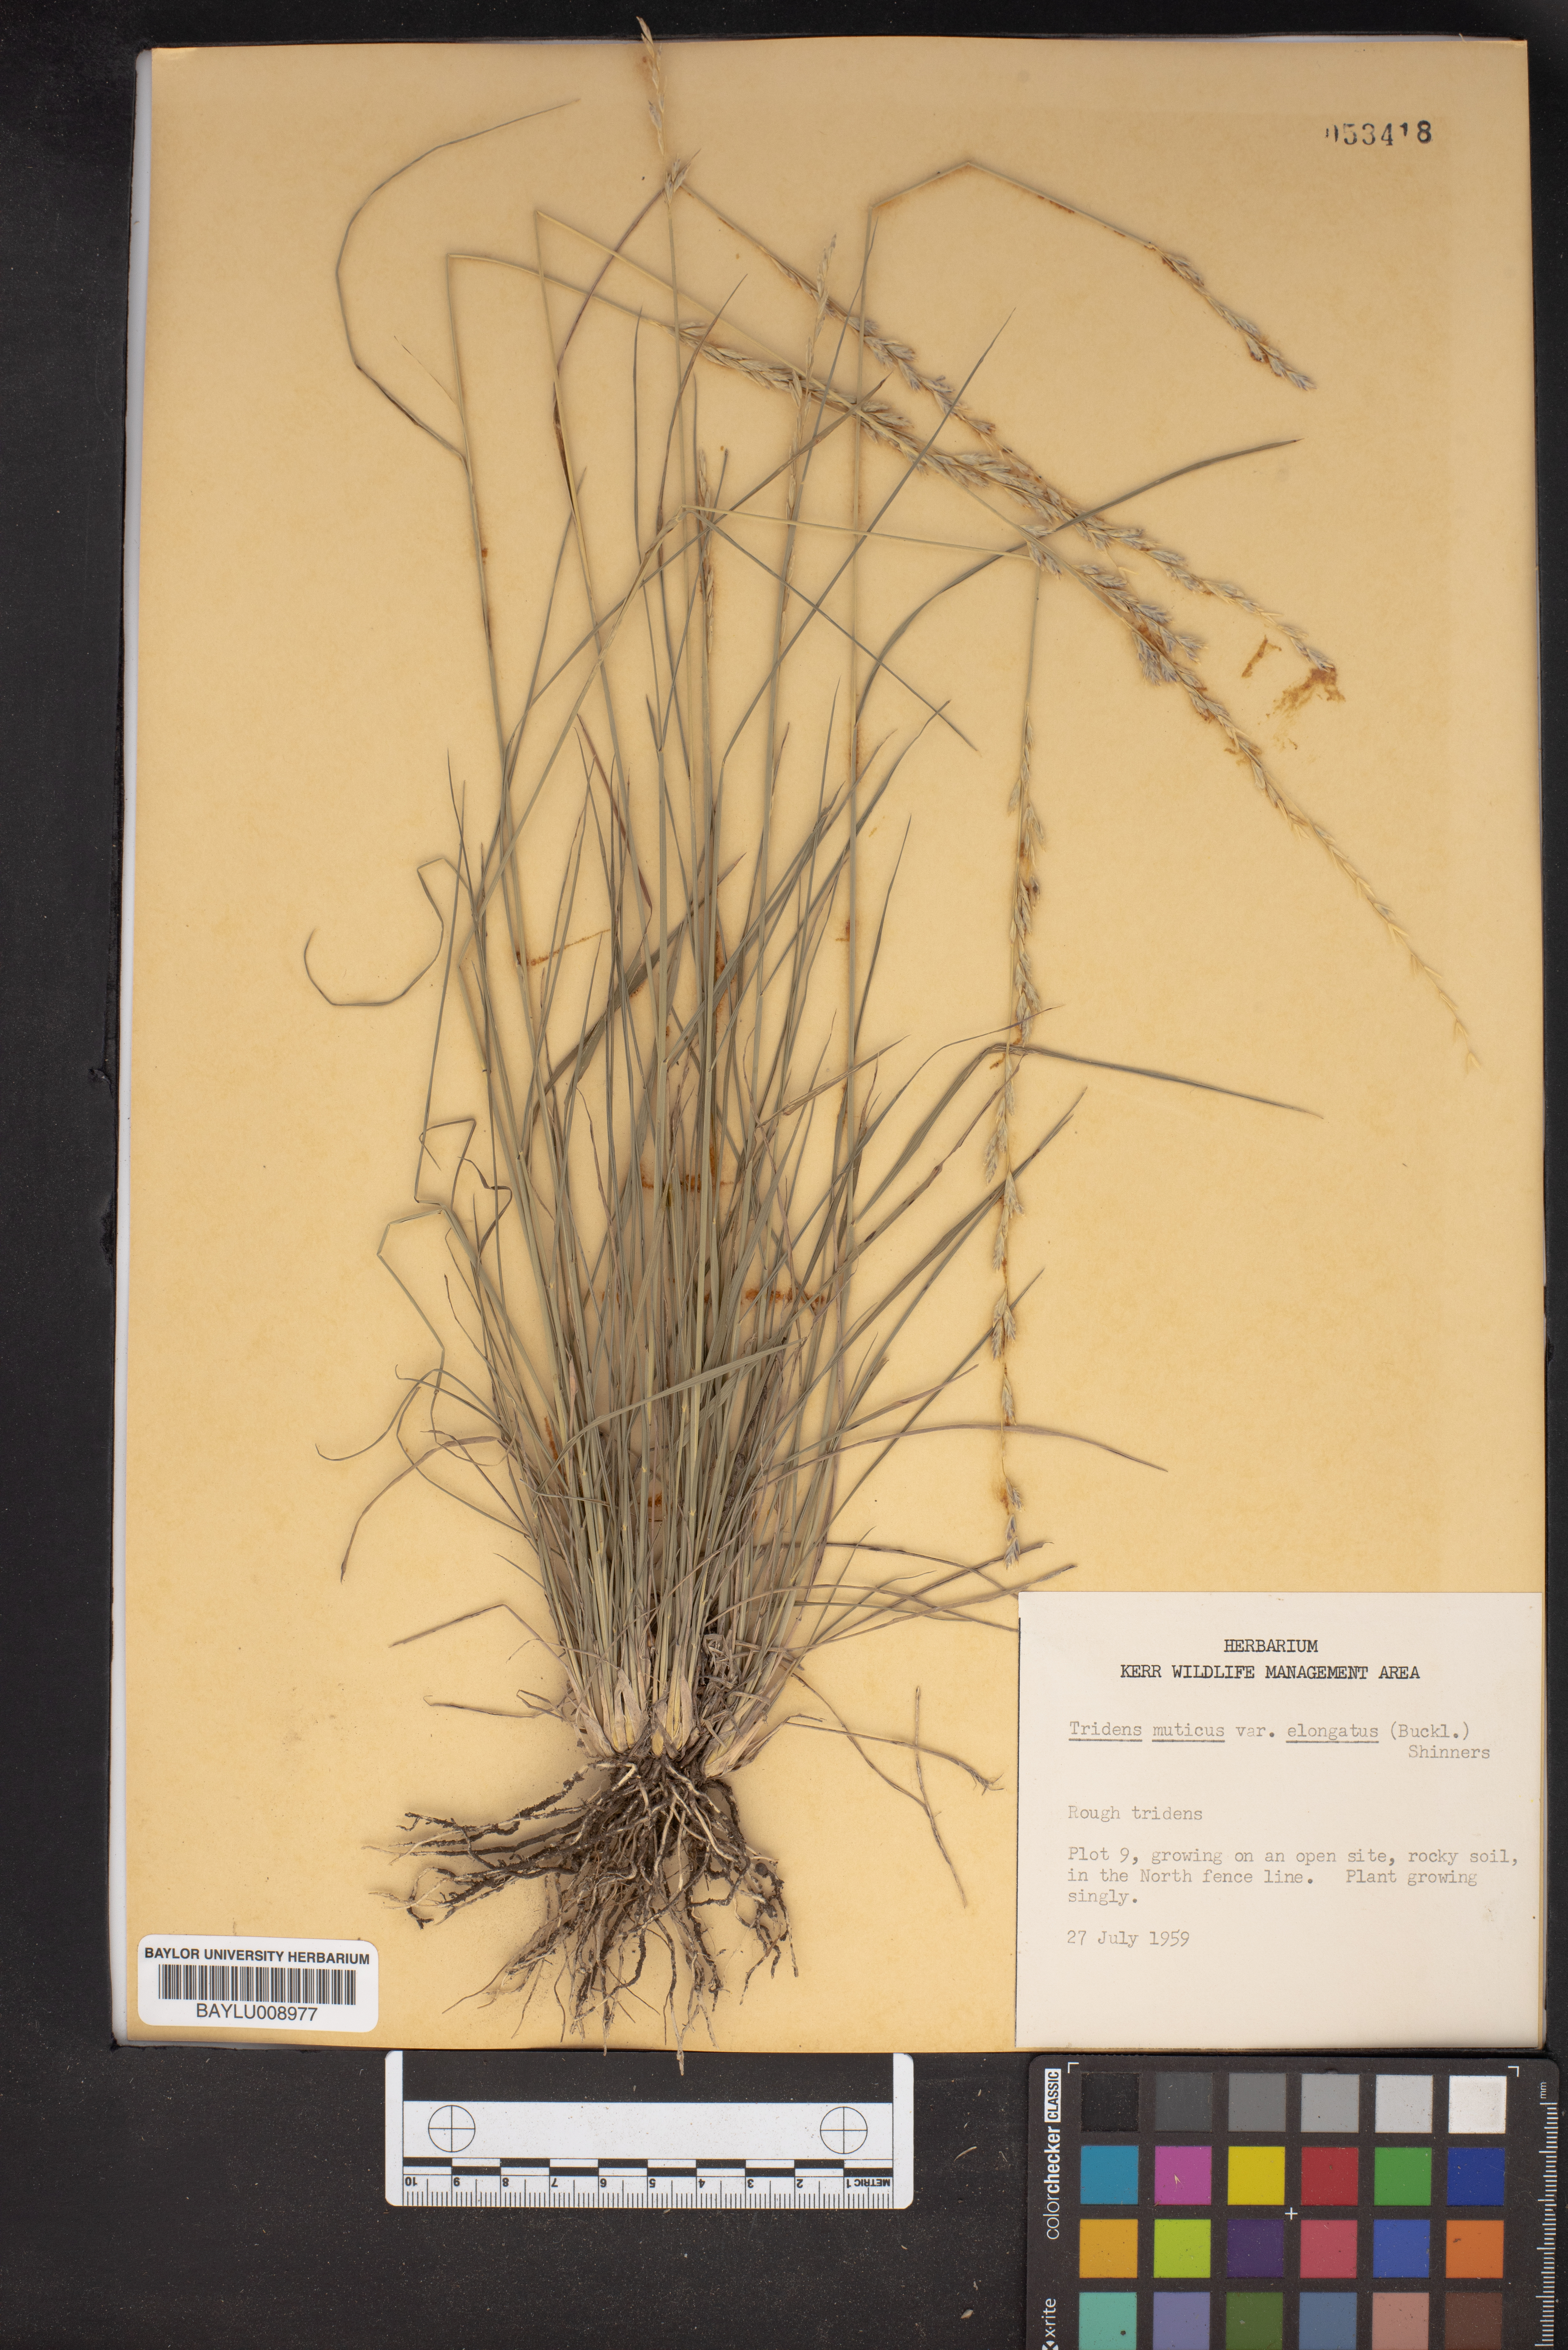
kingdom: Plantae
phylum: Tracheophyta
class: Liliopsida
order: Poales
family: Poaceae
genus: Tridentopsis
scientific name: Tridentopsis mutica
